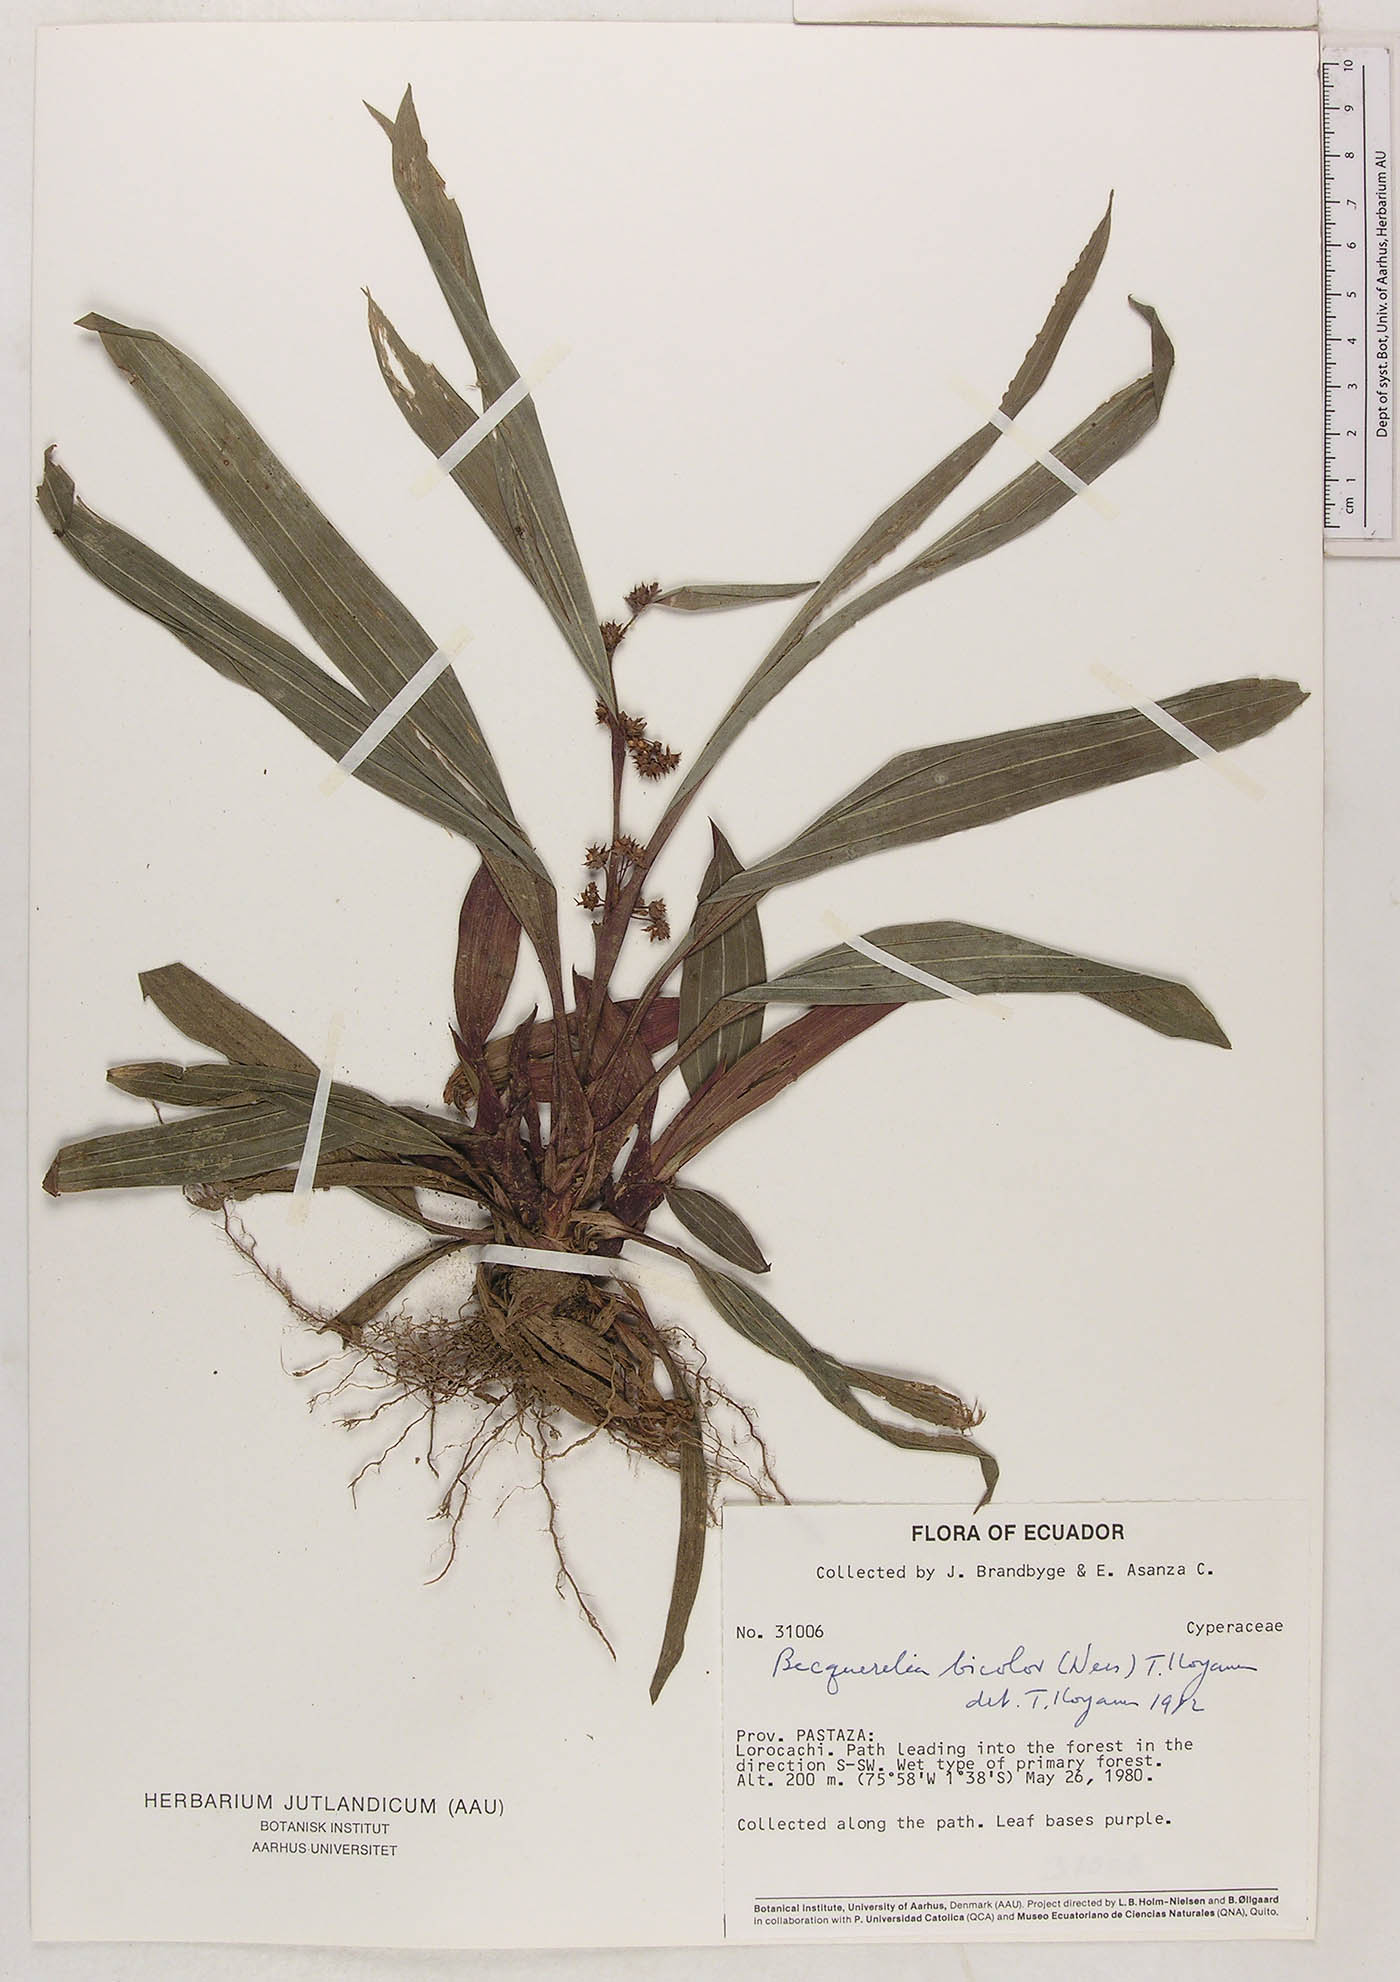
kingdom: Plantae
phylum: Tracheophyta
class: Liliopsida
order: Poales
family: Cyperaceae
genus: Calyptrocarya
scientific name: Calyptrocarya bicolor
